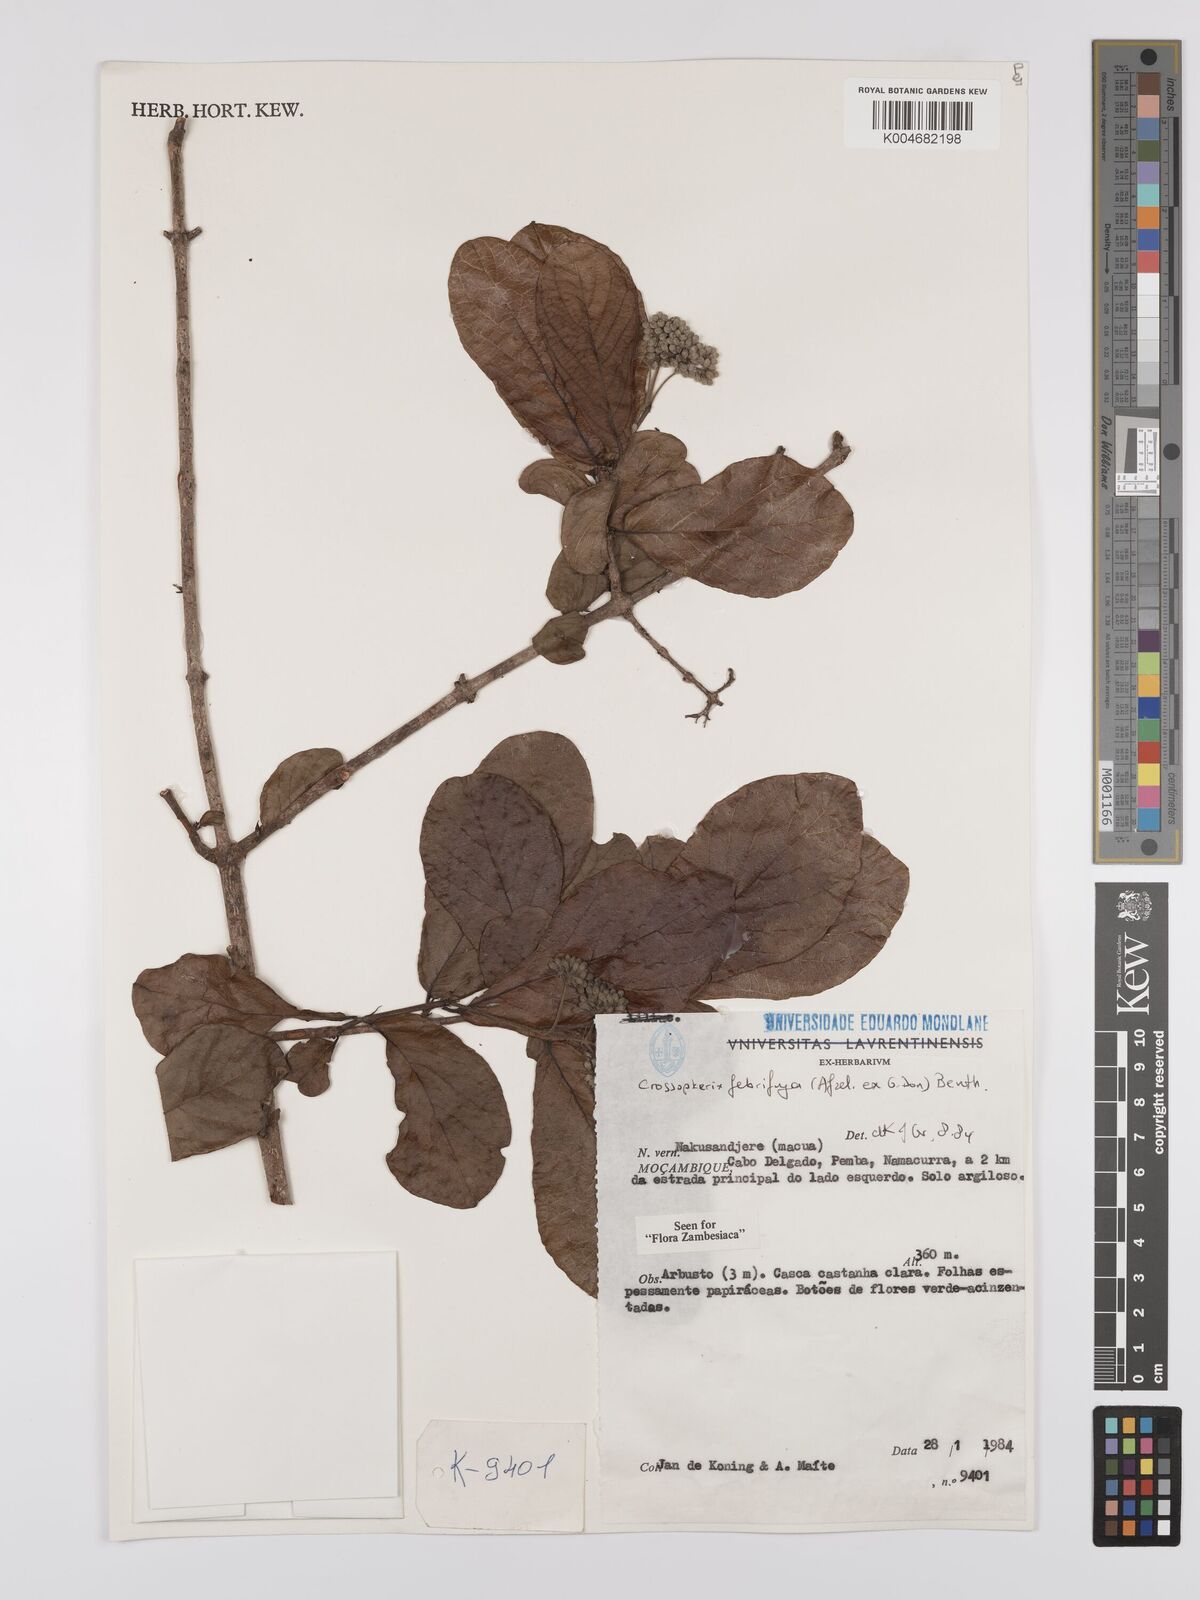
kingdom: Plantae
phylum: Tracheophyta
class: Magnoliopsida
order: Gentianales
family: Rubiaceae
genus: Crossopteryx
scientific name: Crossopteryx febrifuga
